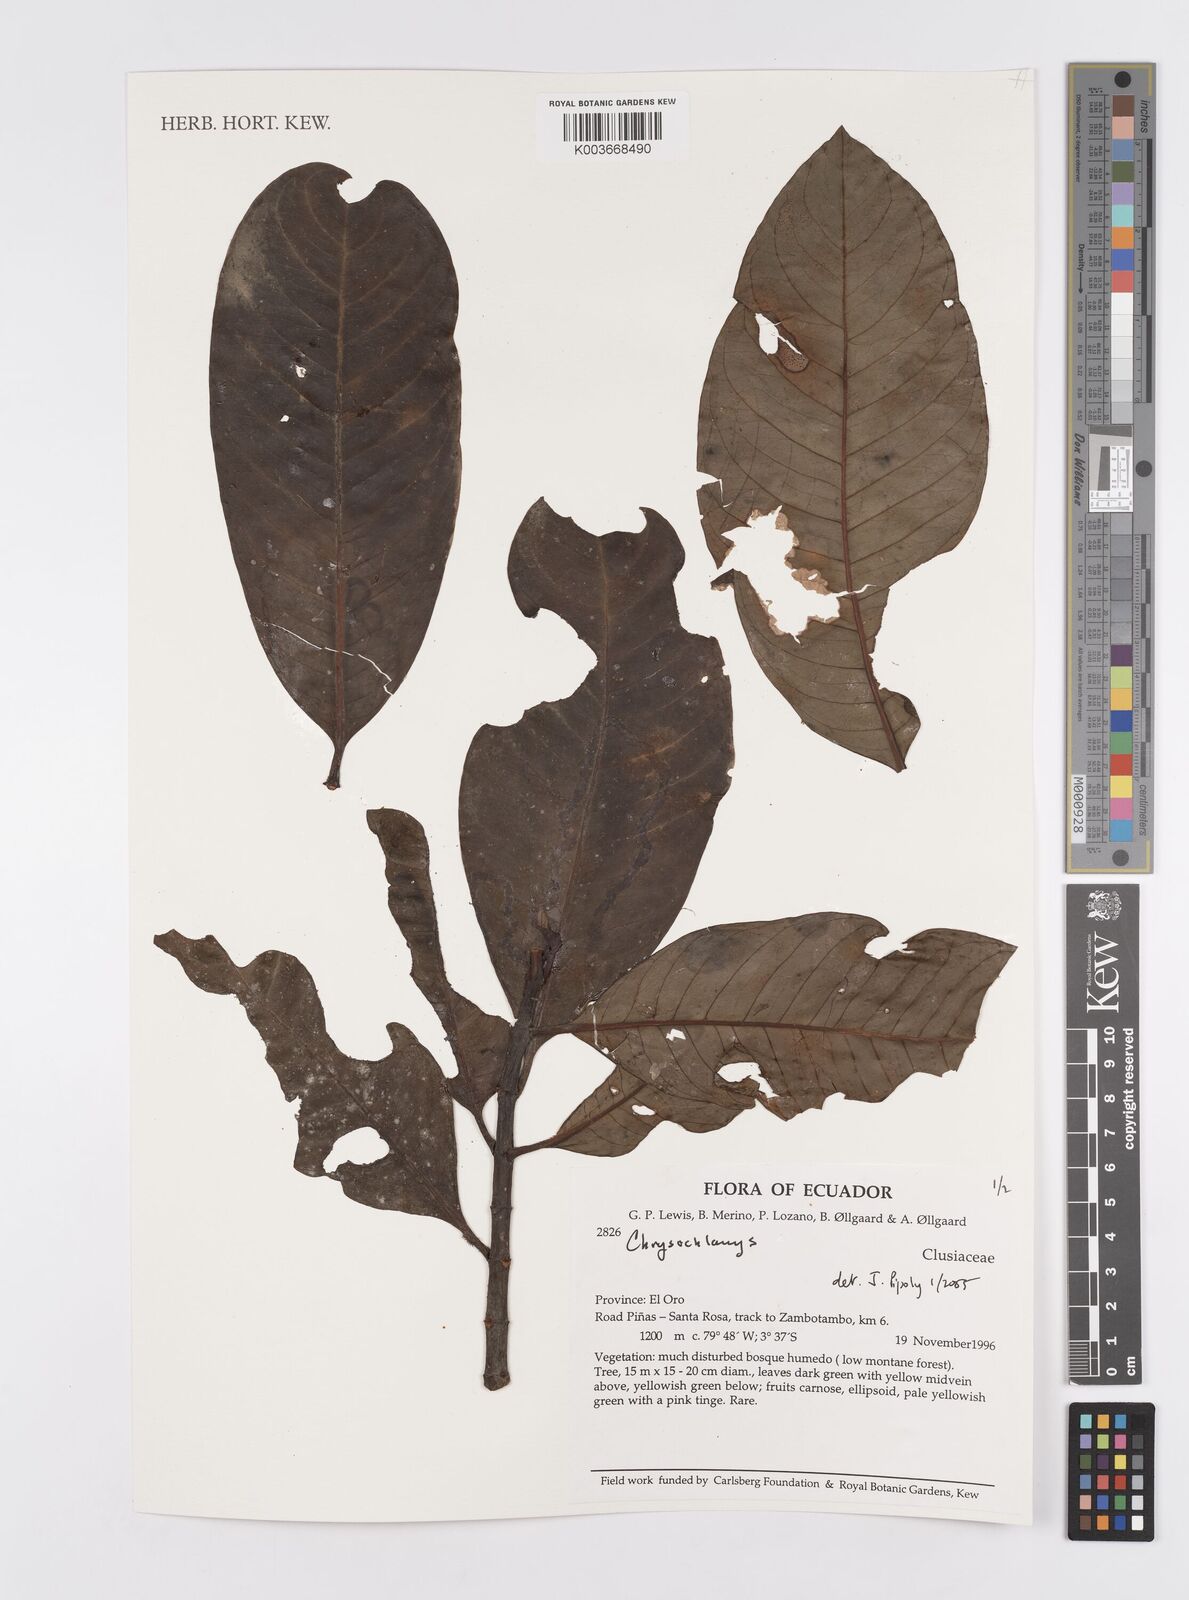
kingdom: Plantae
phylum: Tracheophyta
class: Magnoliopsida
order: Malpighiales
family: Clusiaceae
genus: Chrysochlamys
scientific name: Chrysochlamys
